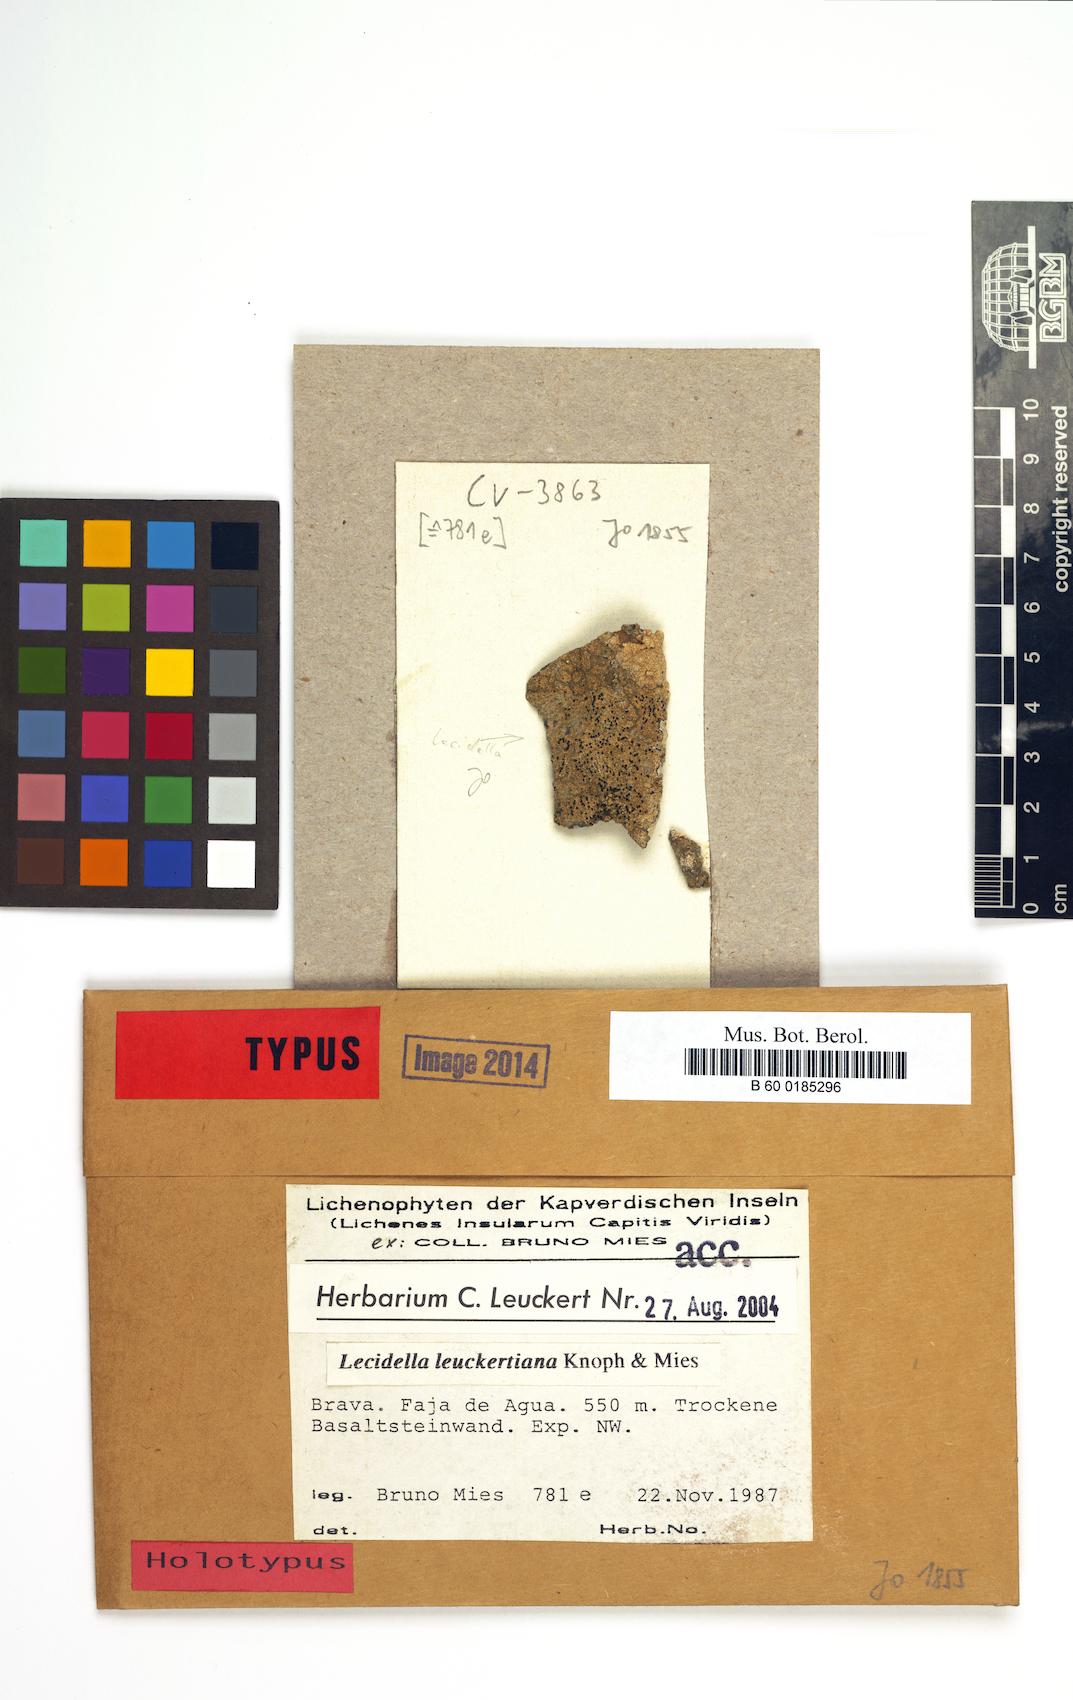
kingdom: Fungi
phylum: Ascomycota
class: Lecanoromycetes
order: Lecanorales
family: Lecanoraceae
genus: Lecidella
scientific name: Lecidella
